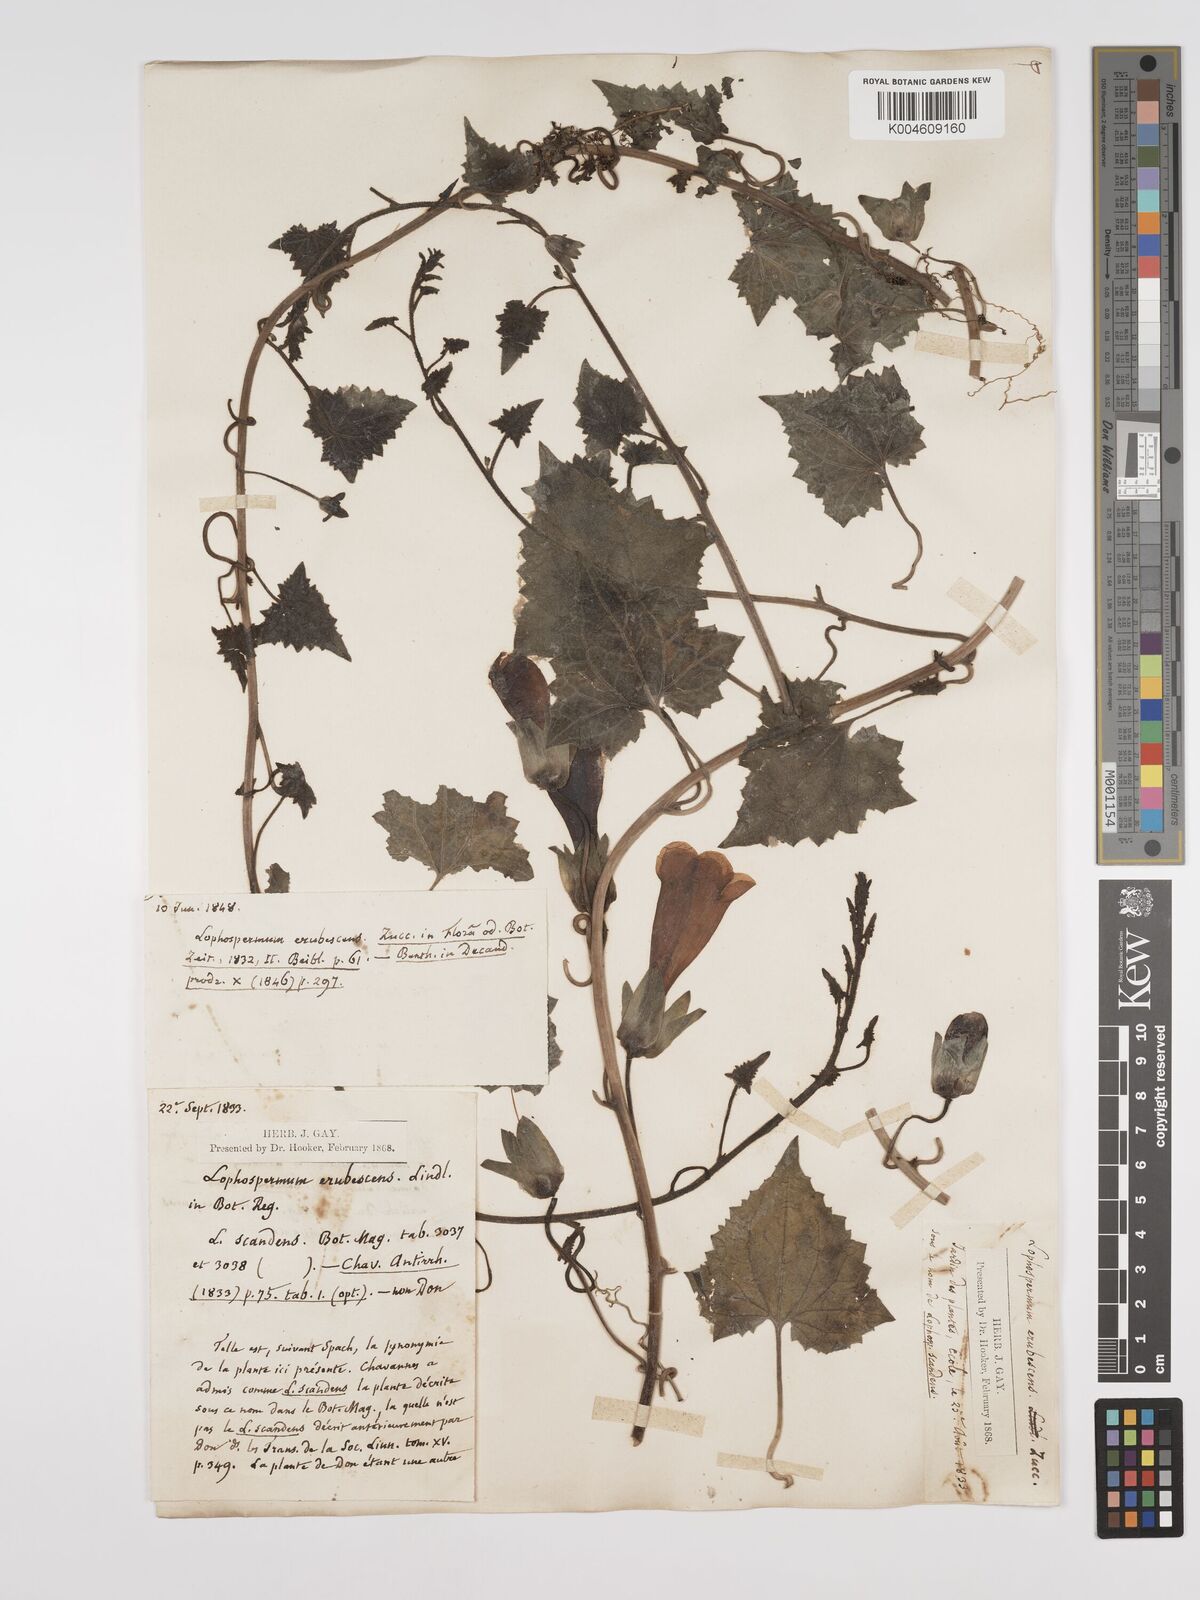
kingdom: Plantae
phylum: Tracheophyta
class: Magnoliopsida
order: Lamiales
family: Plantaginaceae
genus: Lophospermum
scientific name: Lophospermum erubescens
